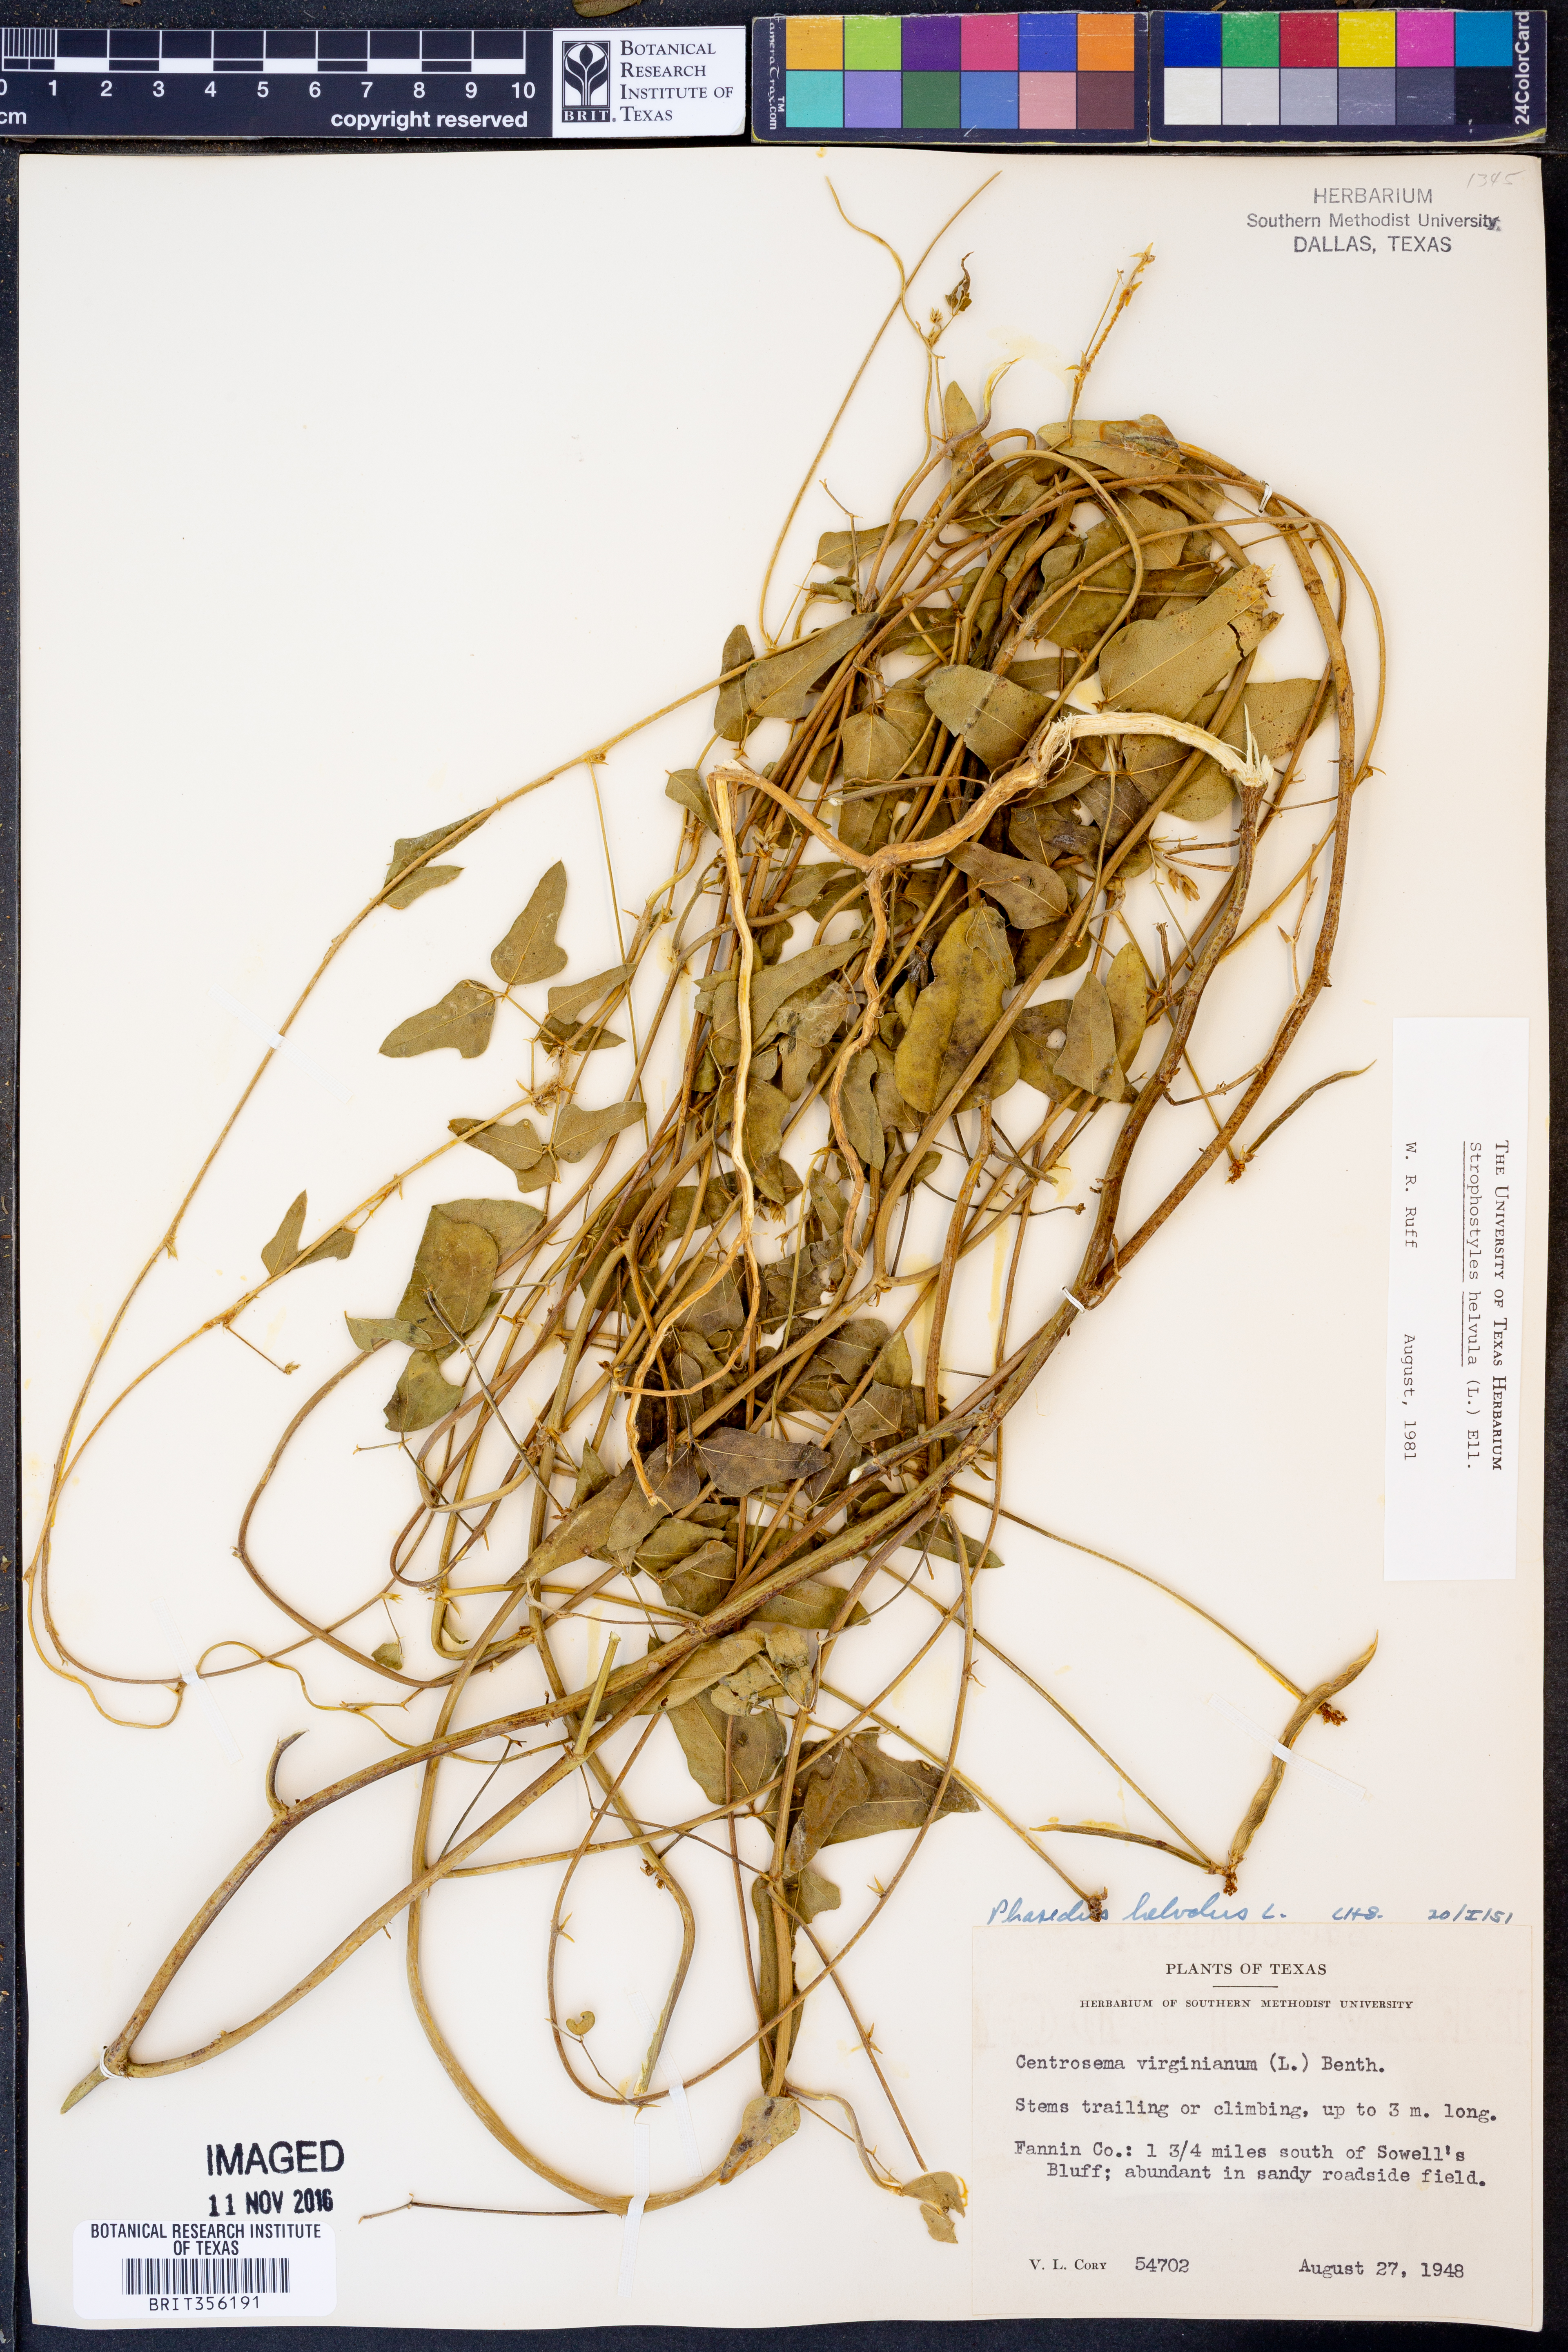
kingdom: Plantae
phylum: Tracheophyta
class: Magnoliopsida
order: Fabales
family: Fabaceae
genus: Strophostyles
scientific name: Strophostyles helvula
